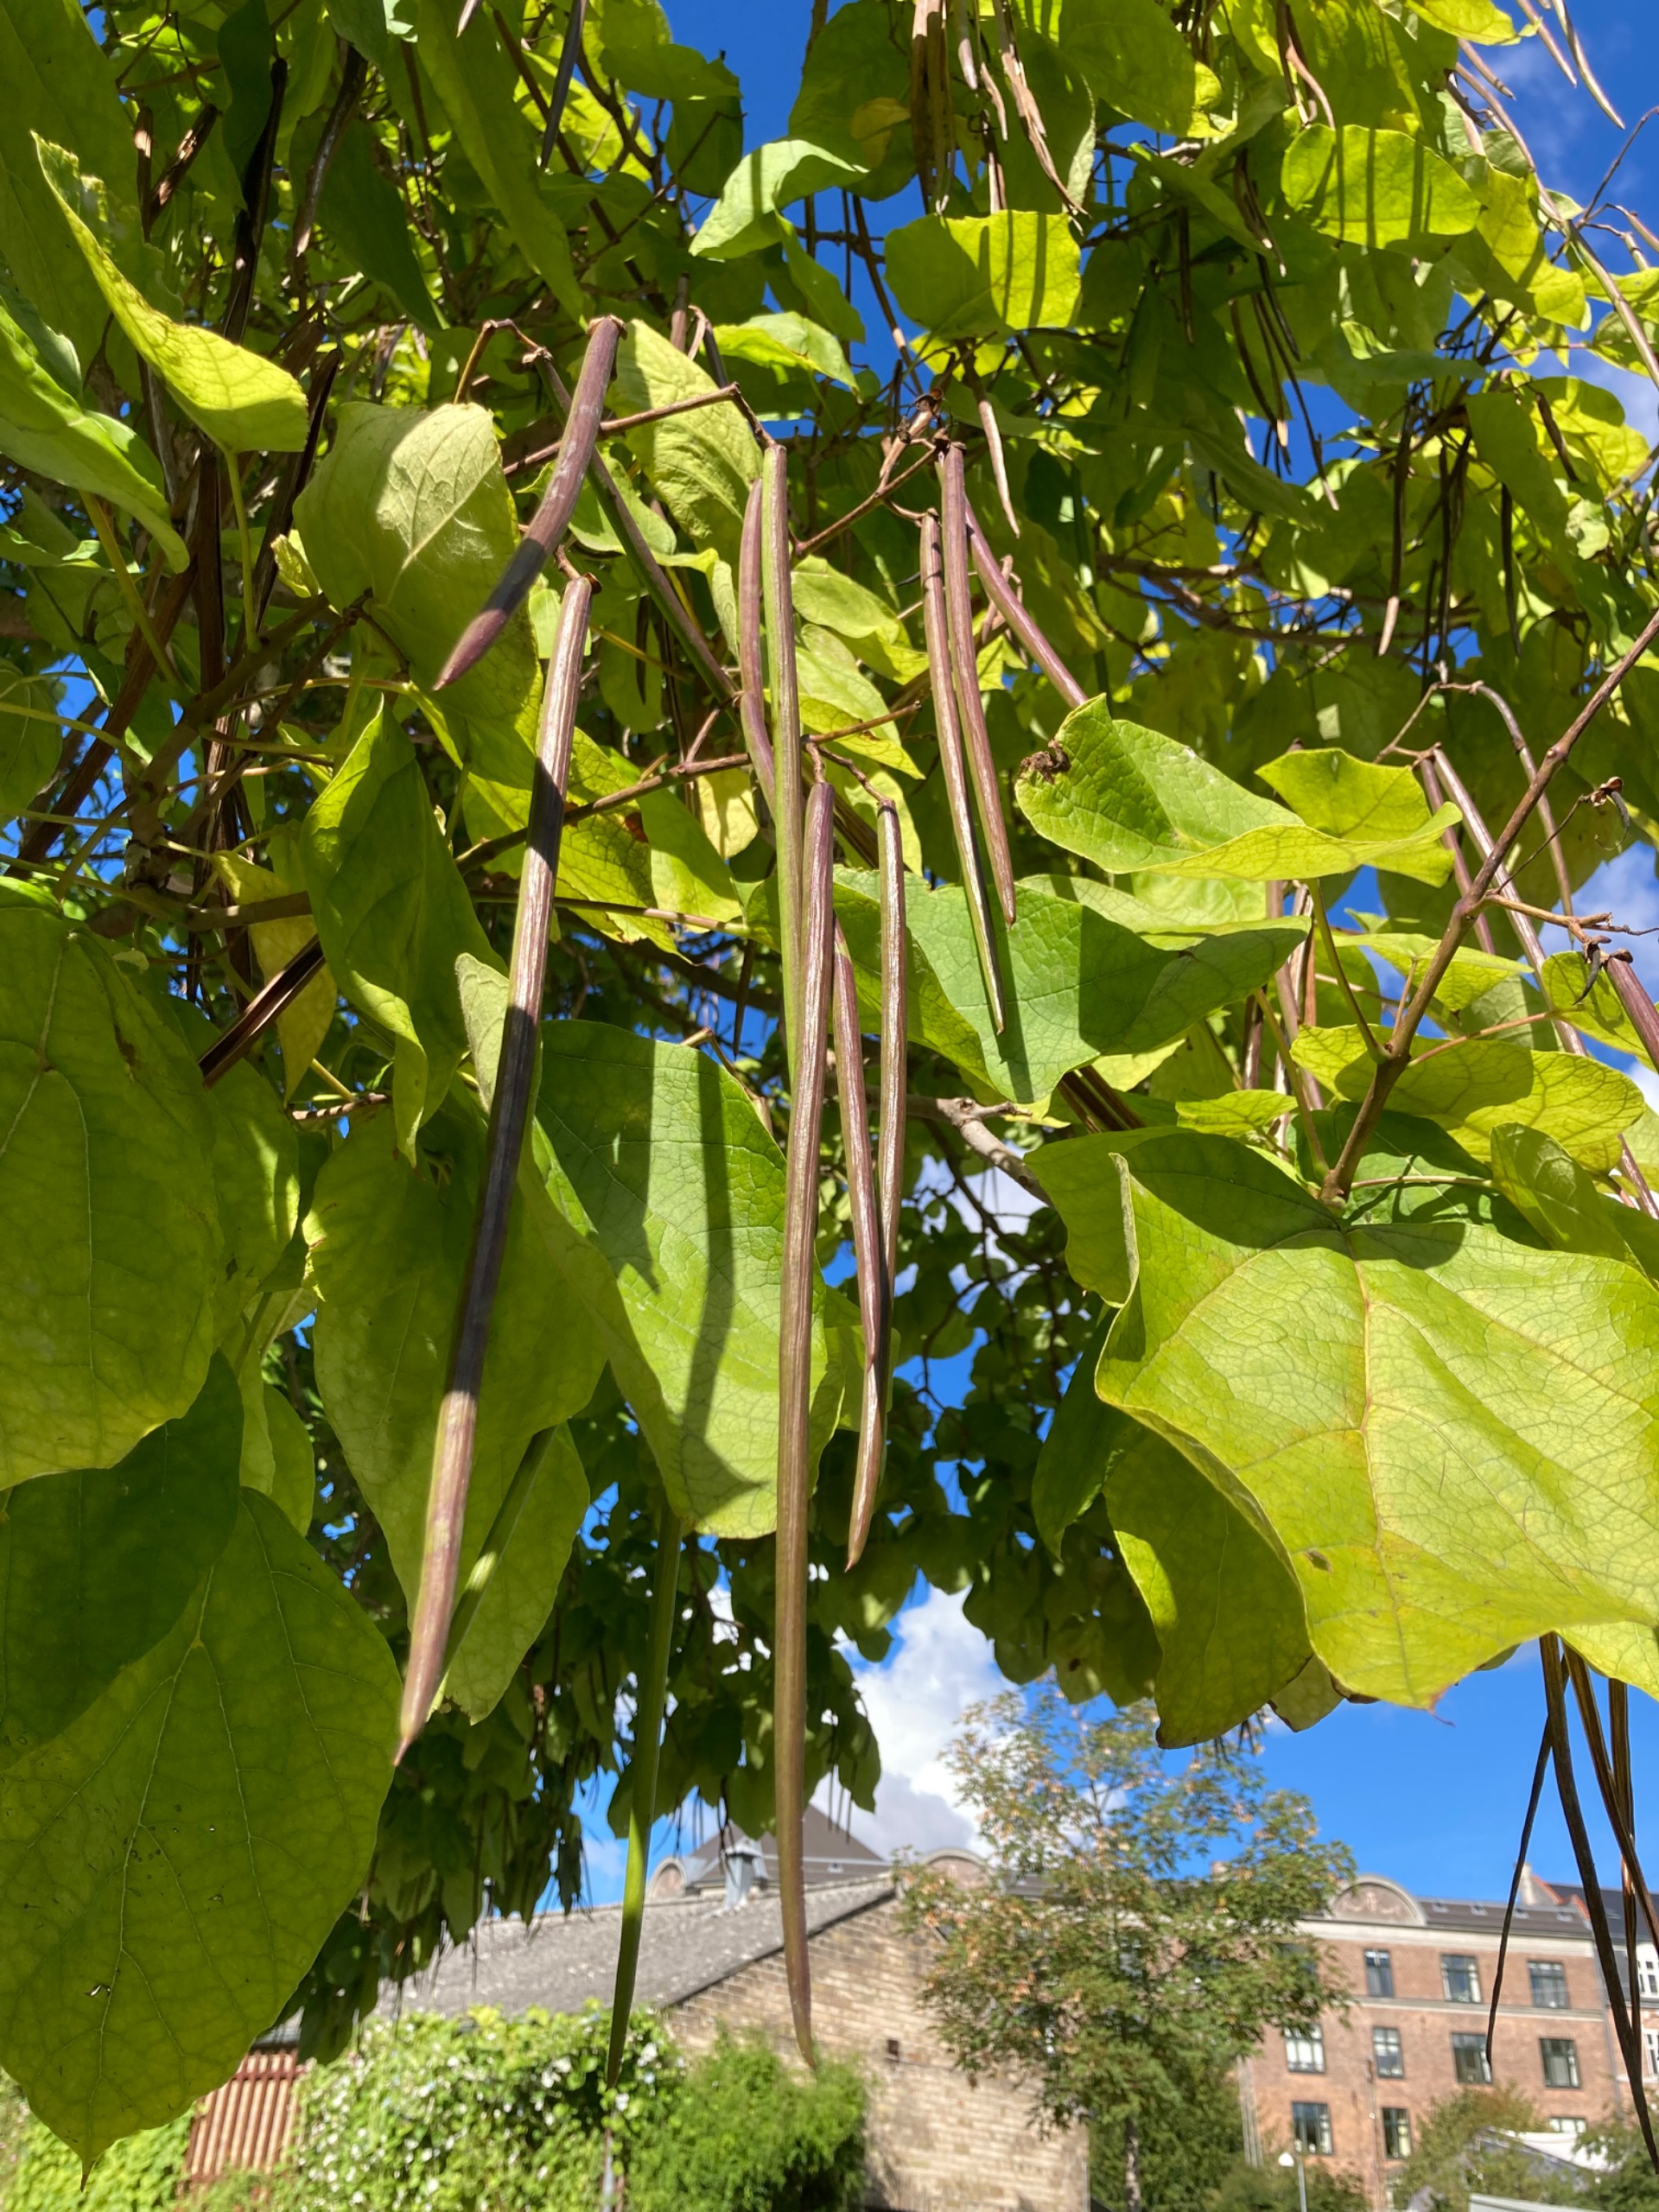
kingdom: Plantae
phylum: Tracheophyta
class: Magnoliopsida
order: Lamiales
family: Bignoniaceae
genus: Catalpa
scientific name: Catalpa
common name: Trompetkroneslægten
